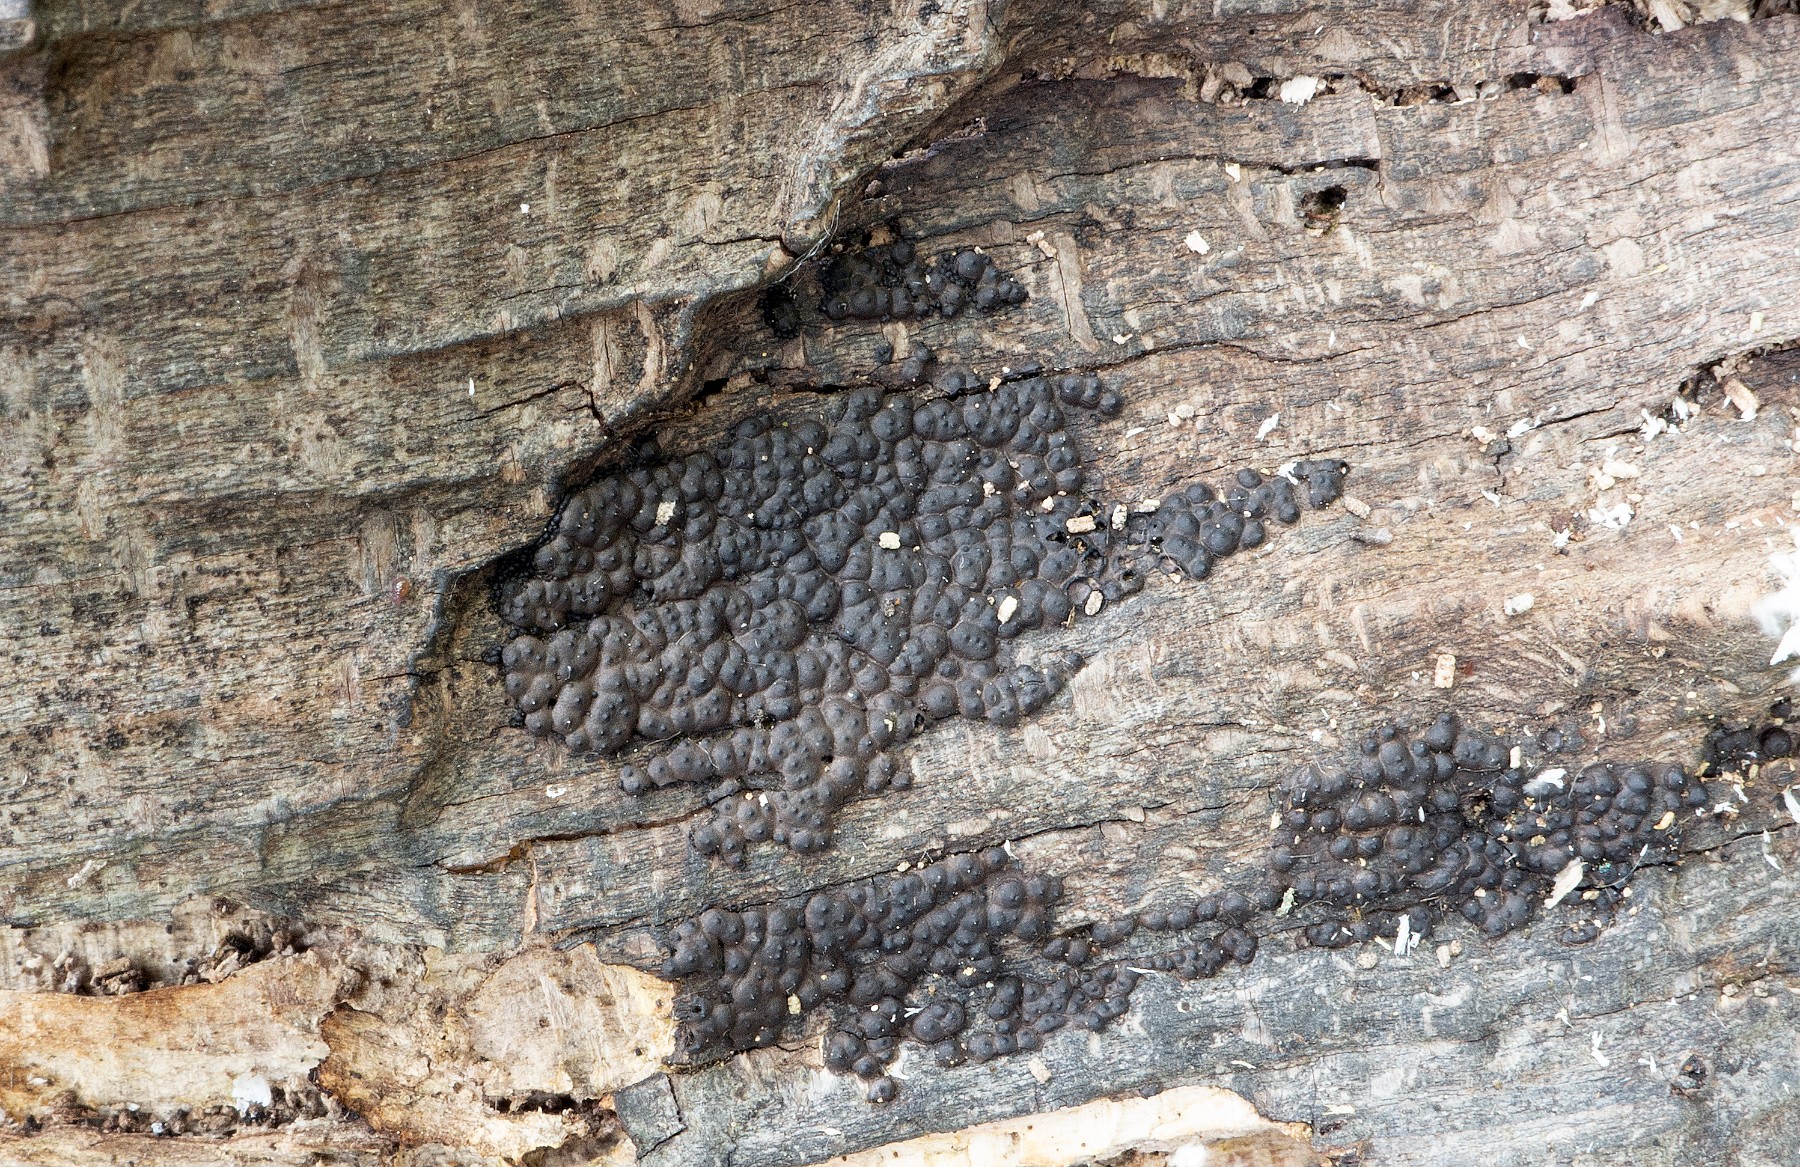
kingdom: Fungi
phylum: Ascomycota
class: Sordariomycetes
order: Xylariales
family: Xylariaceae
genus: Nemania
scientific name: Nemania atropurpurea
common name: purpursort kuldyne
